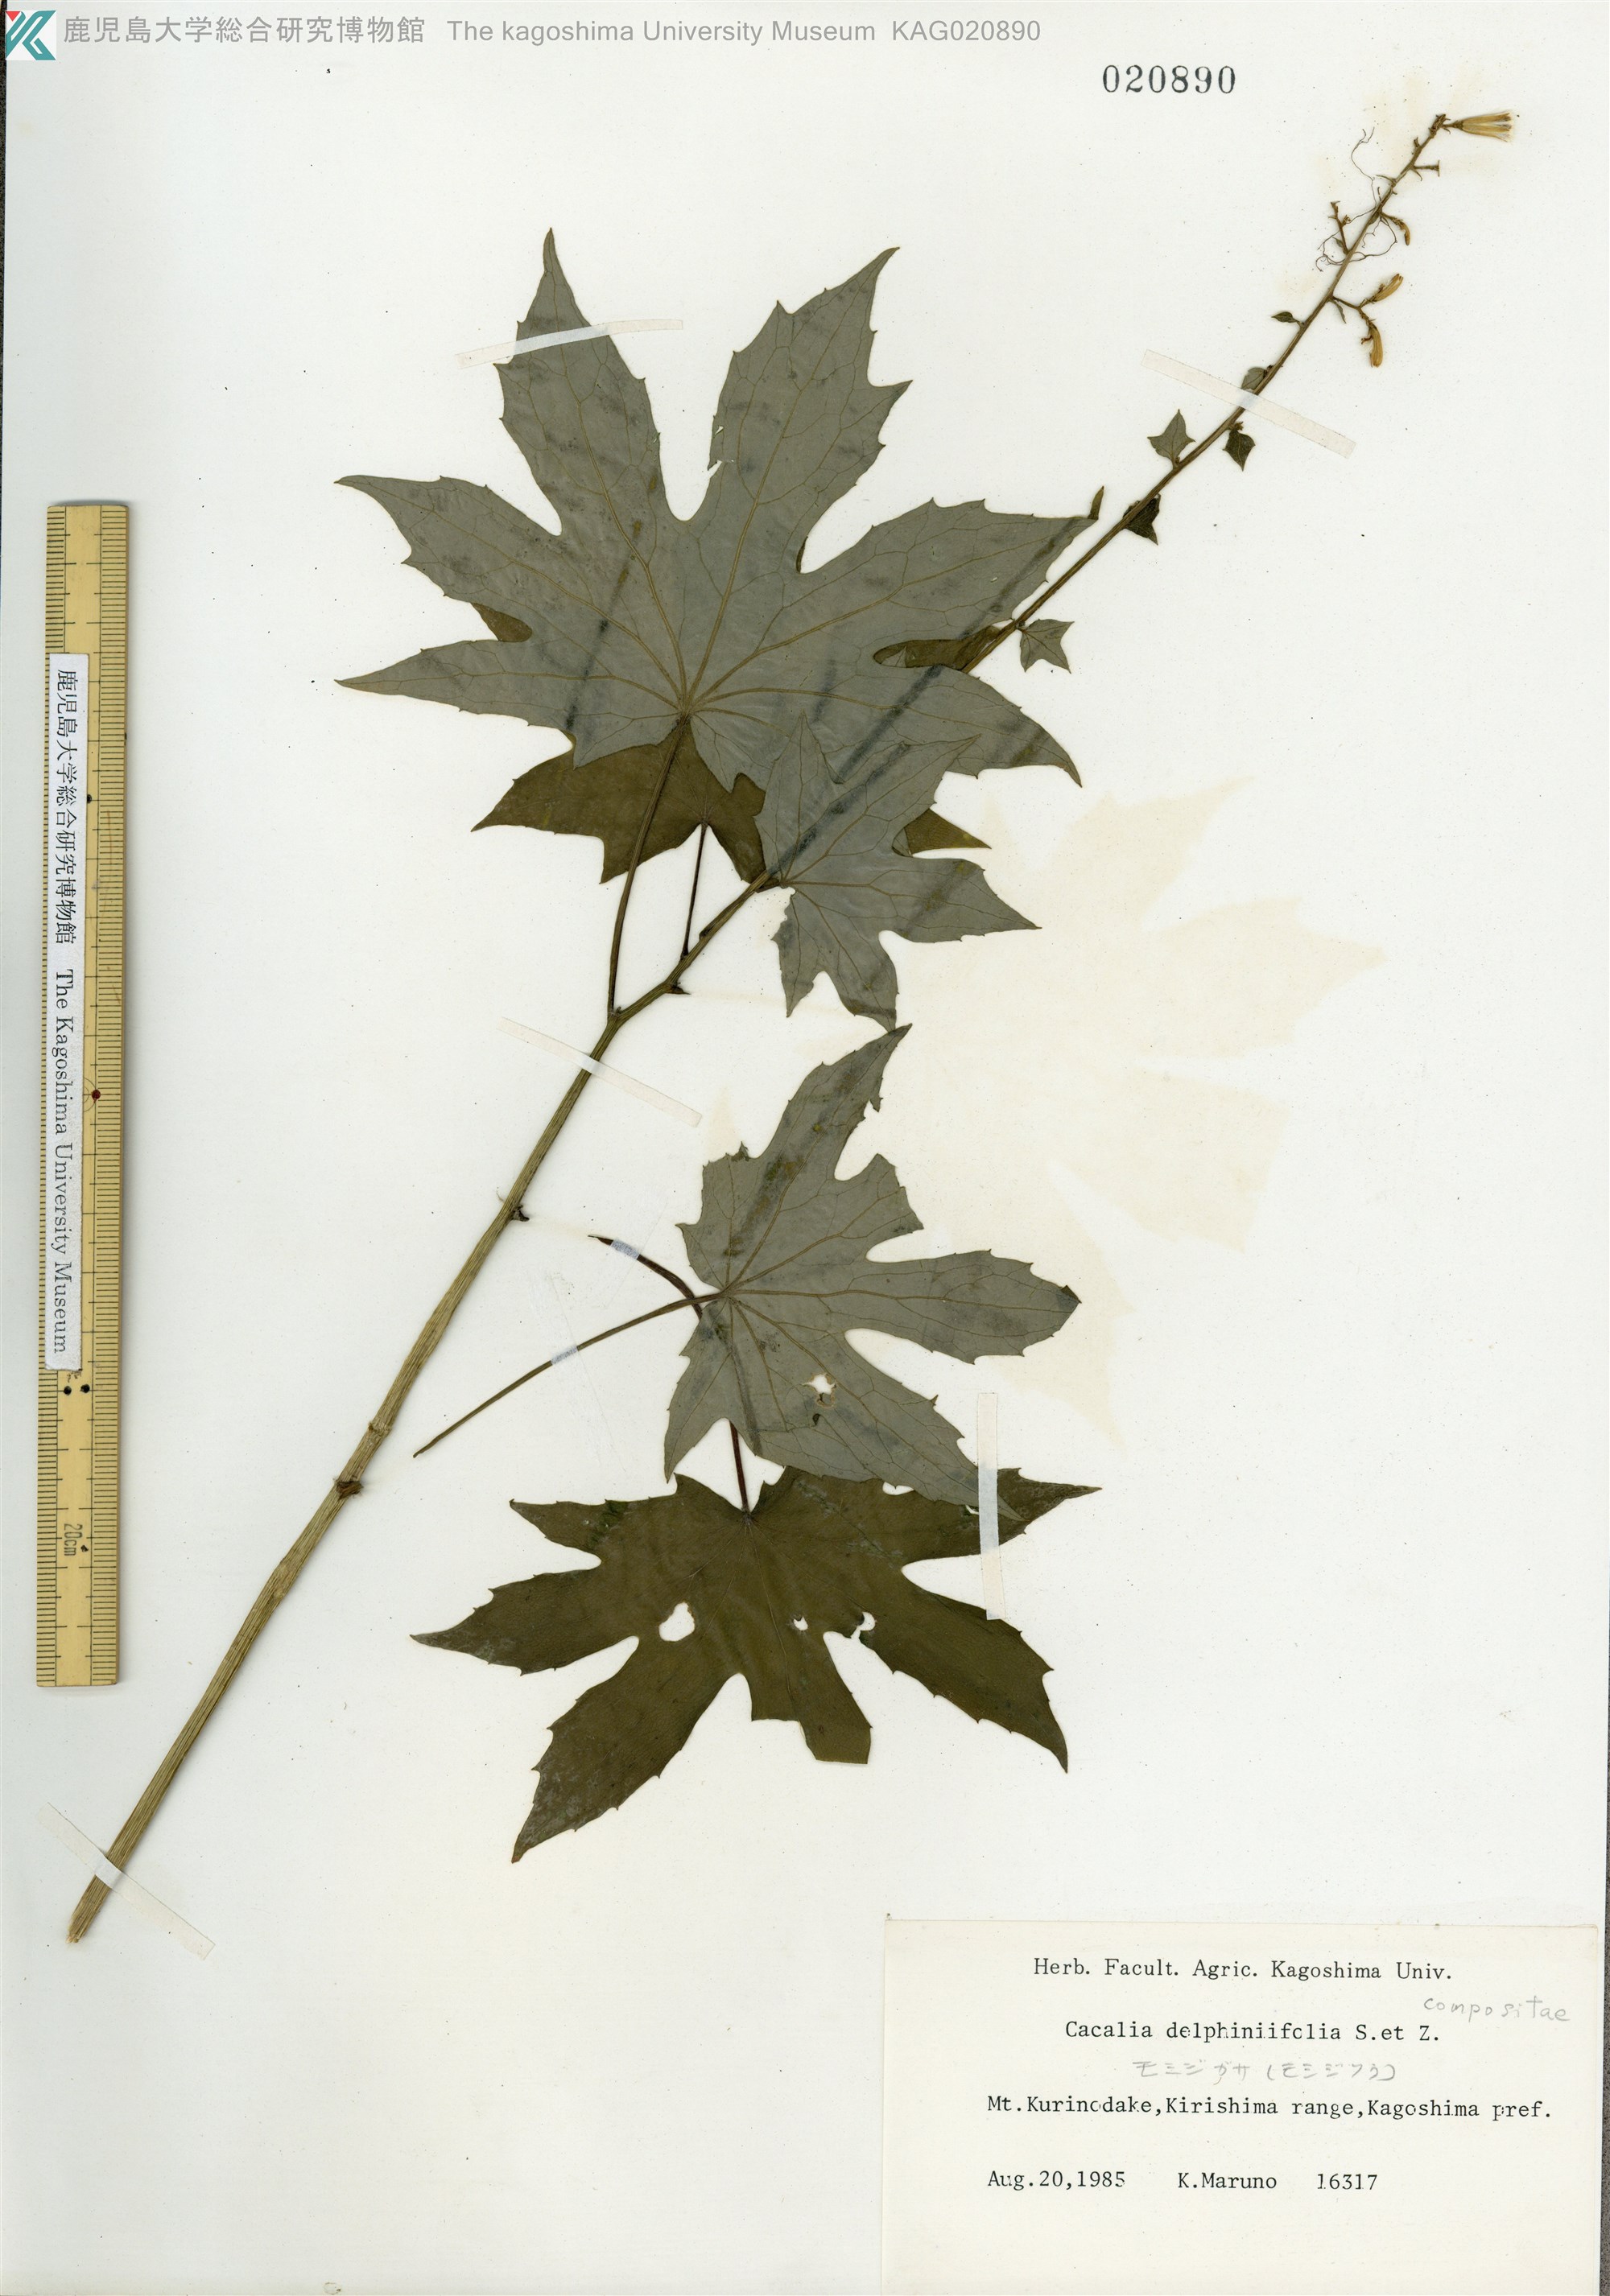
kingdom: Plantae
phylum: Tracheophyta
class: Magnoliopsida
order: Asterales
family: Asteraceae
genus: Japonicalia
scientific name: Japonicalia delphiniifolia
